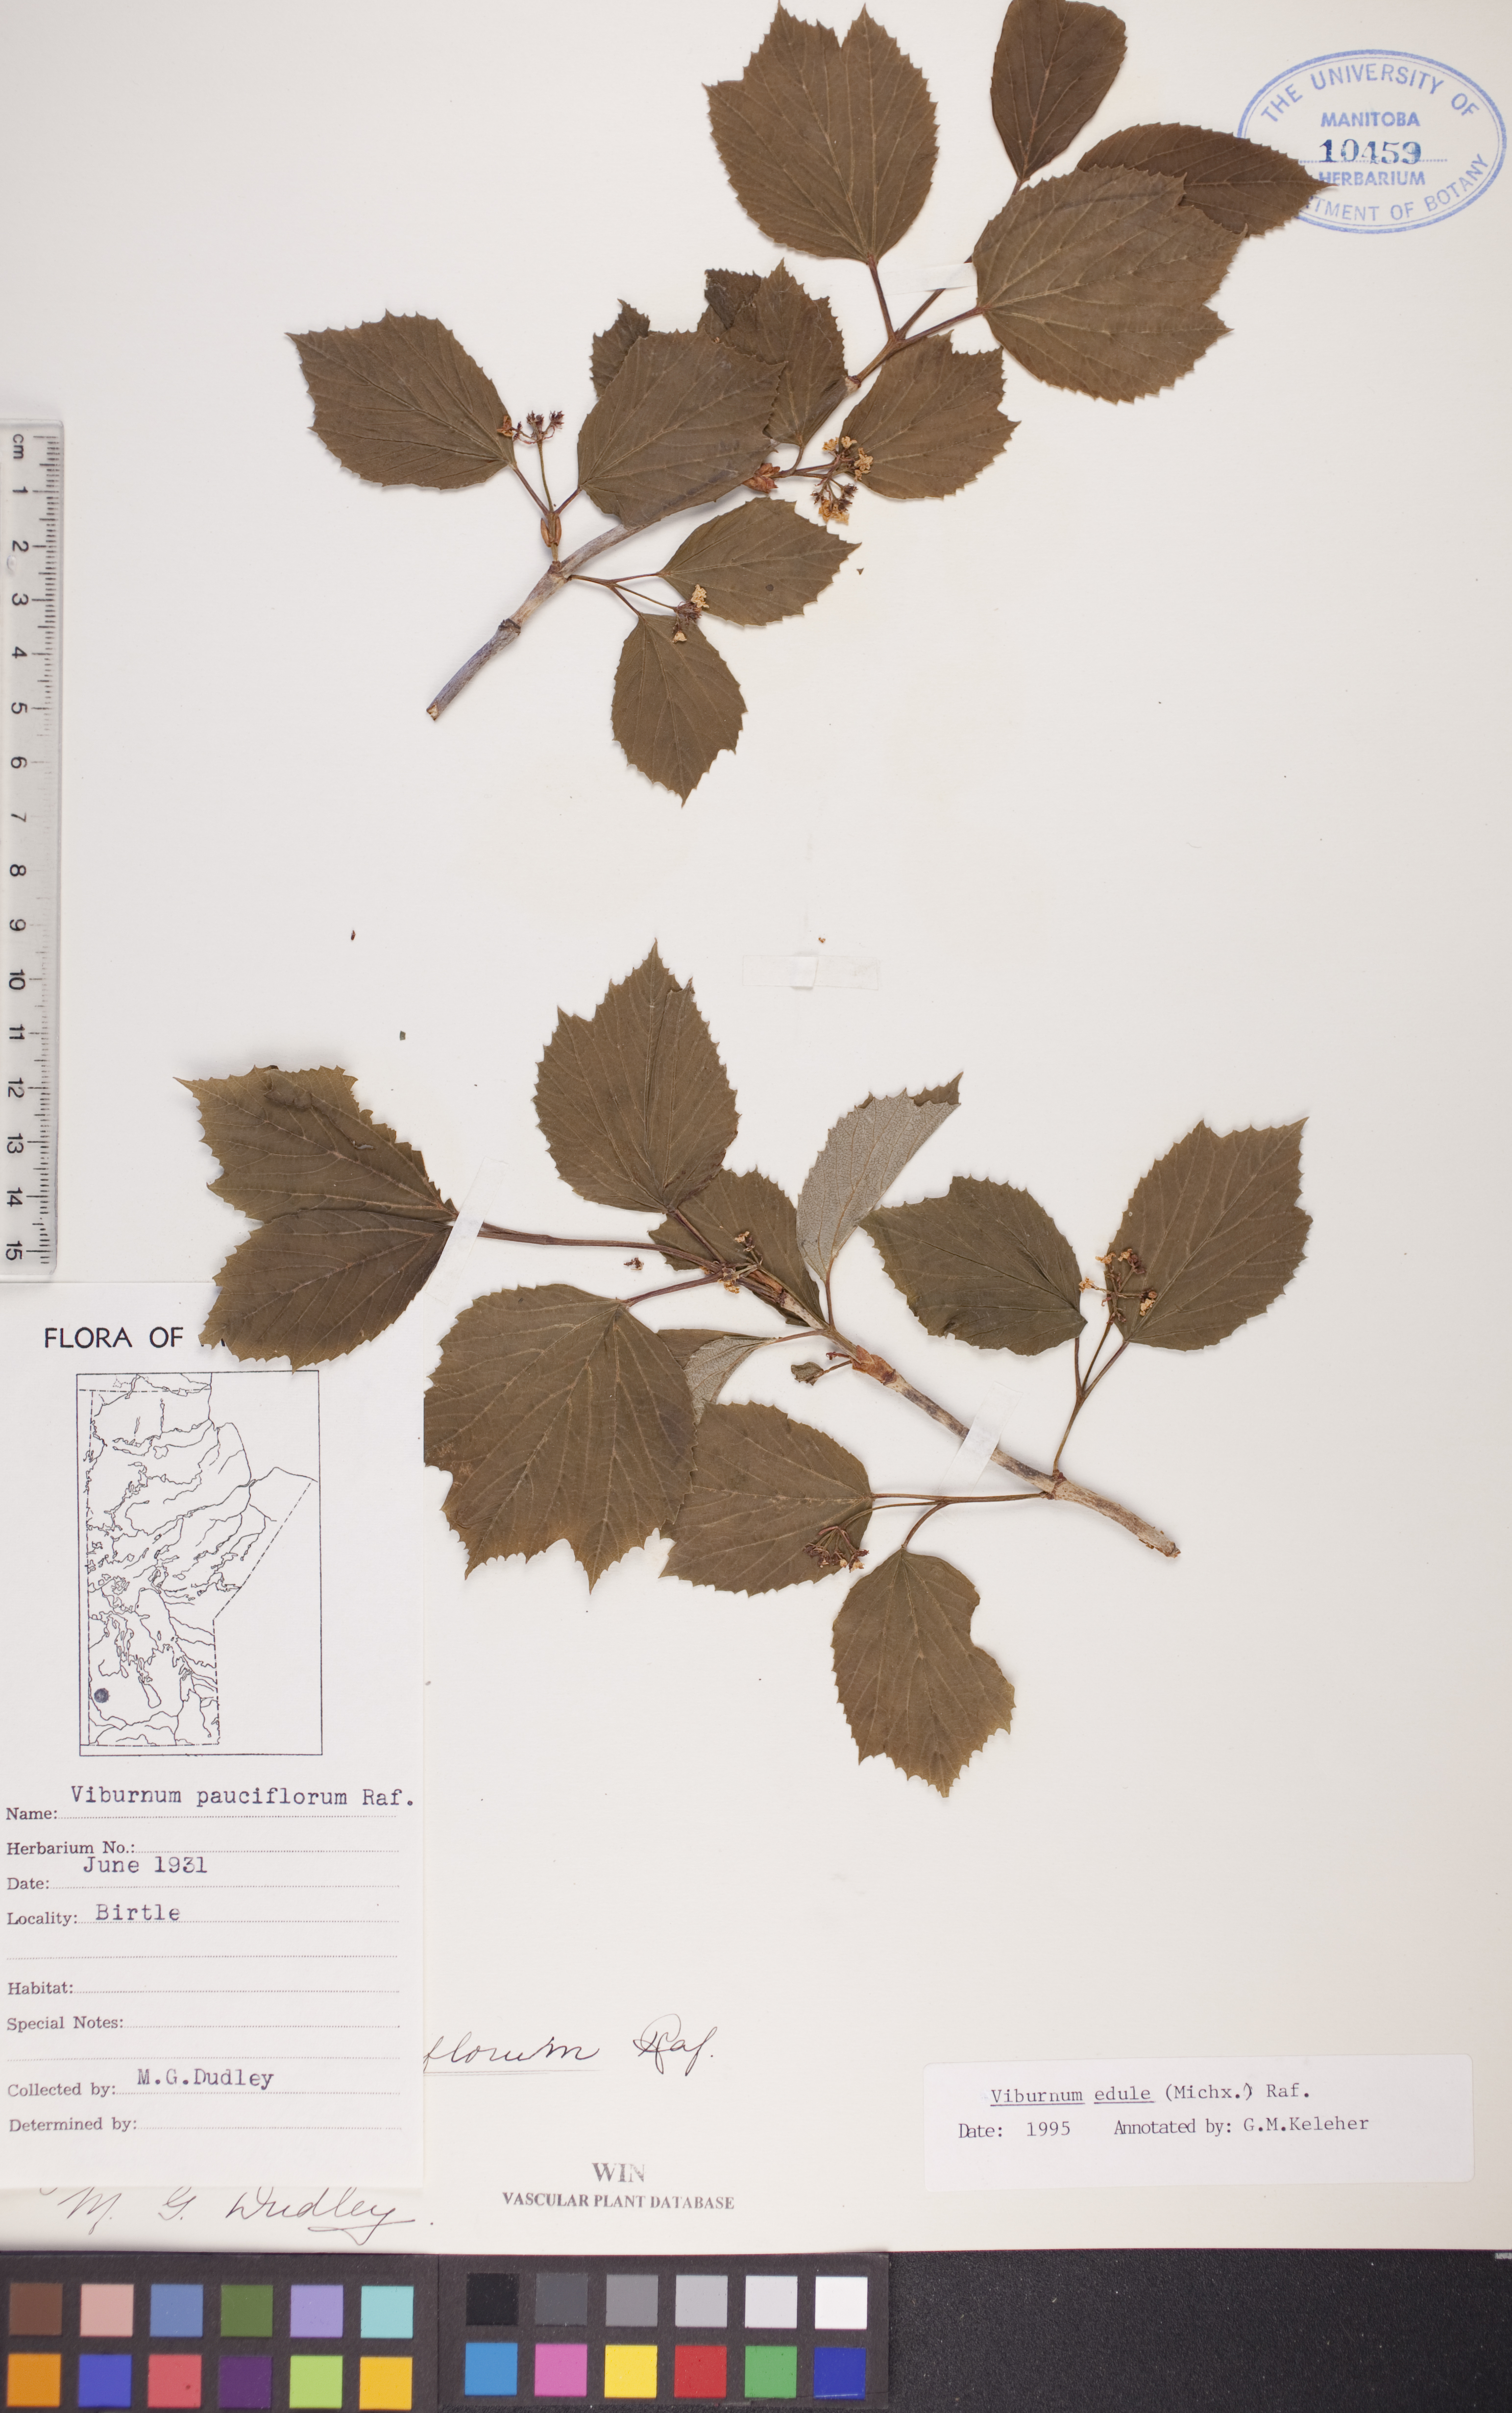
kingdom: Plantae
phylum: Tracheophyta
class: Magnoliopsida
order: Dipsacales
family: Viburnaceae
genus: Viburnum
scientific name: Viburnum edule
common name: Mooseberry
